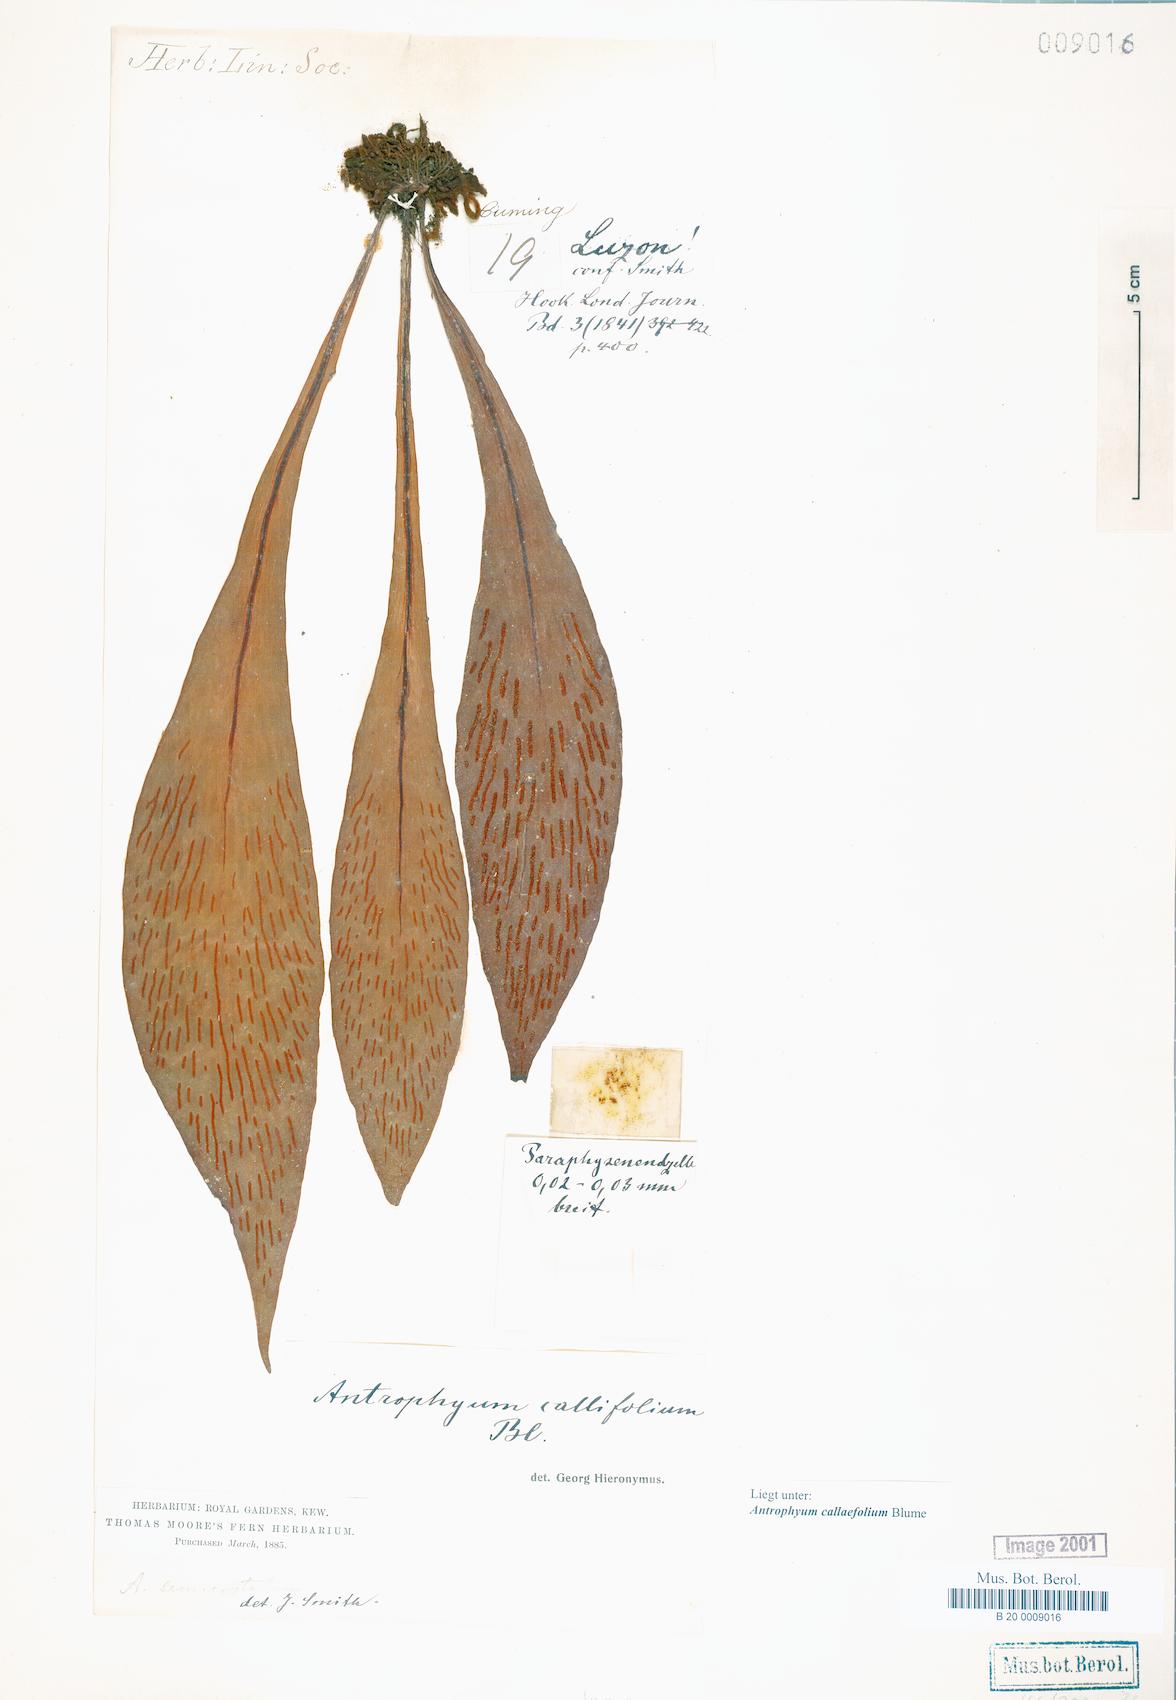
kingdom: Plantae
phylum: Tracheophyta
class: Polypodiopsida
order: Polypodiales
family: Pteridaceae
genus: Antrophyum
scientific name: Antrophyum callifolium
